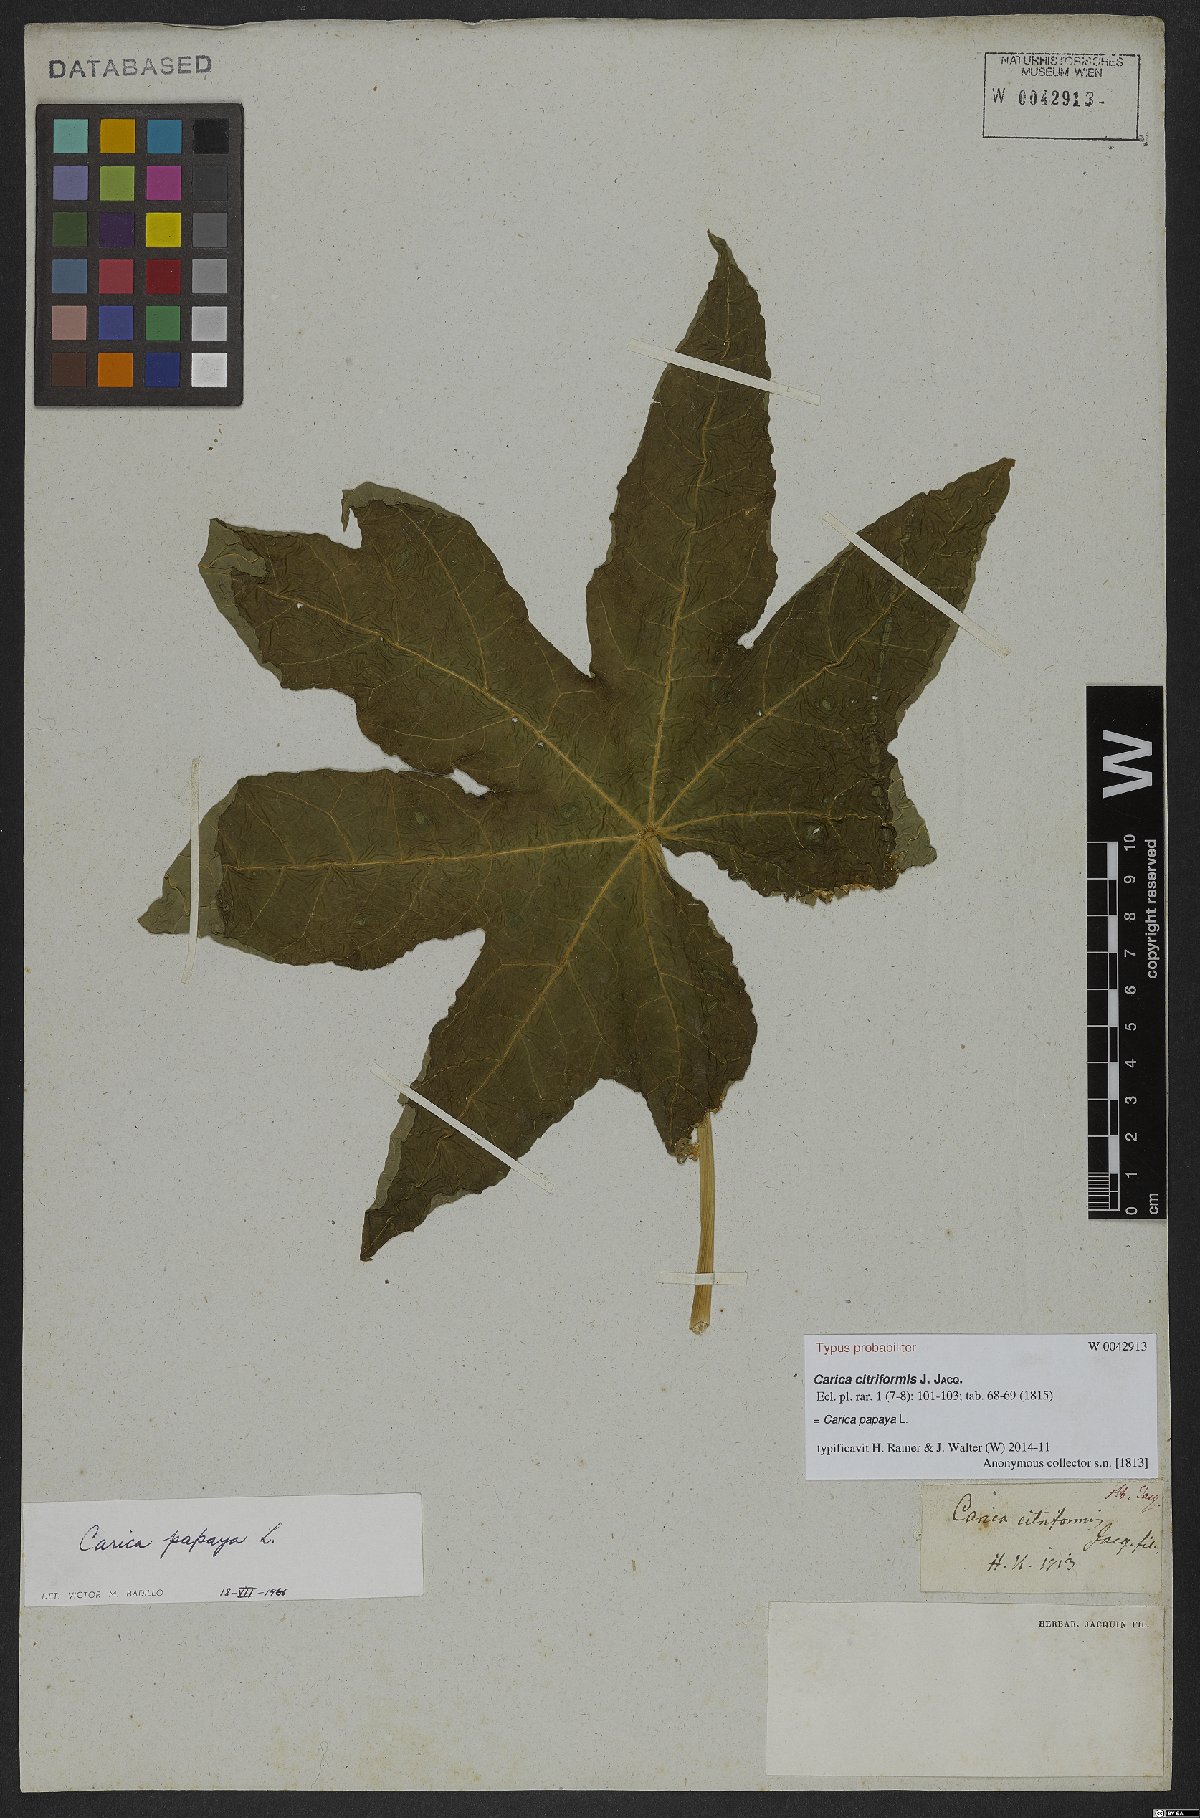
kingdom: Plantae
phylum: Tracheophyta
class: Magnoliopsida
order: Brassicales
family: Caricaceae
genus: Carica
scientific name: Carica papaya
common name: Papaya
